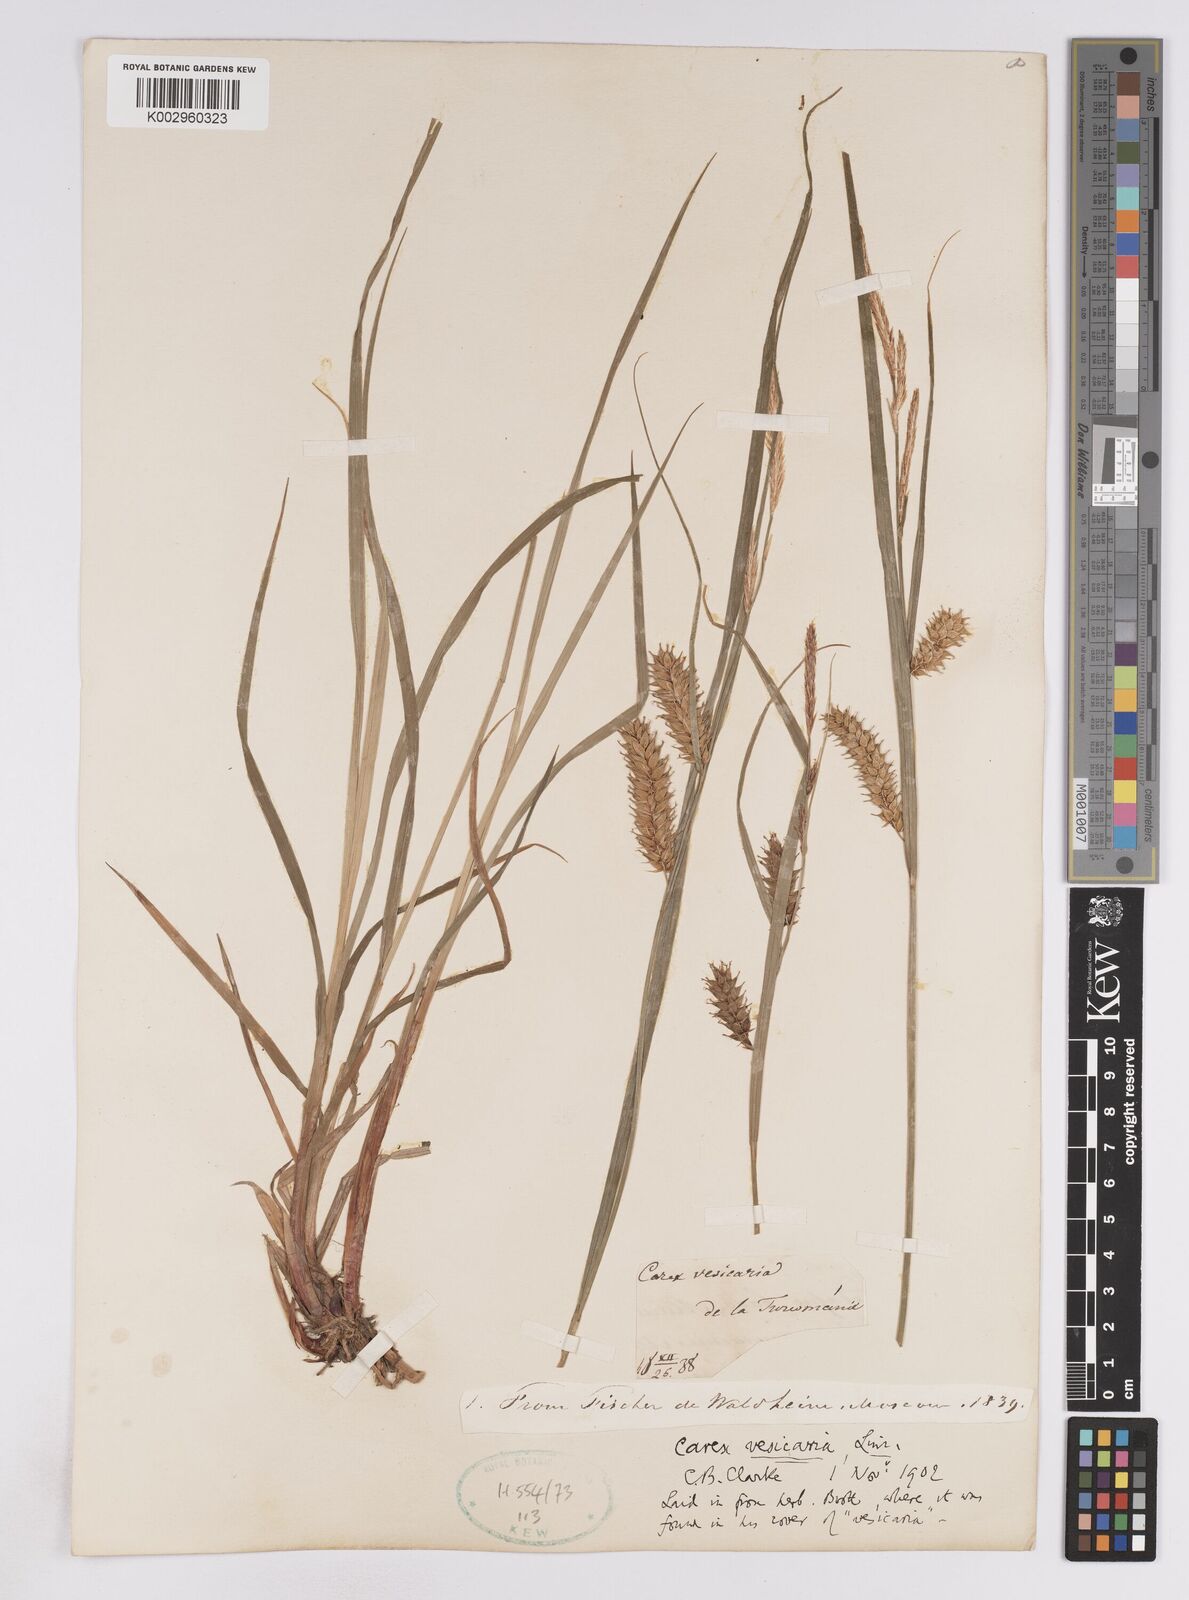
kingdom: Plantae
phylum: Tracheophyta
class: Liliopsida
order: Poales
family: Cyperaceae
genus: Carex
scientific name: Carex vesicaria
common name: Bladder-sedge
